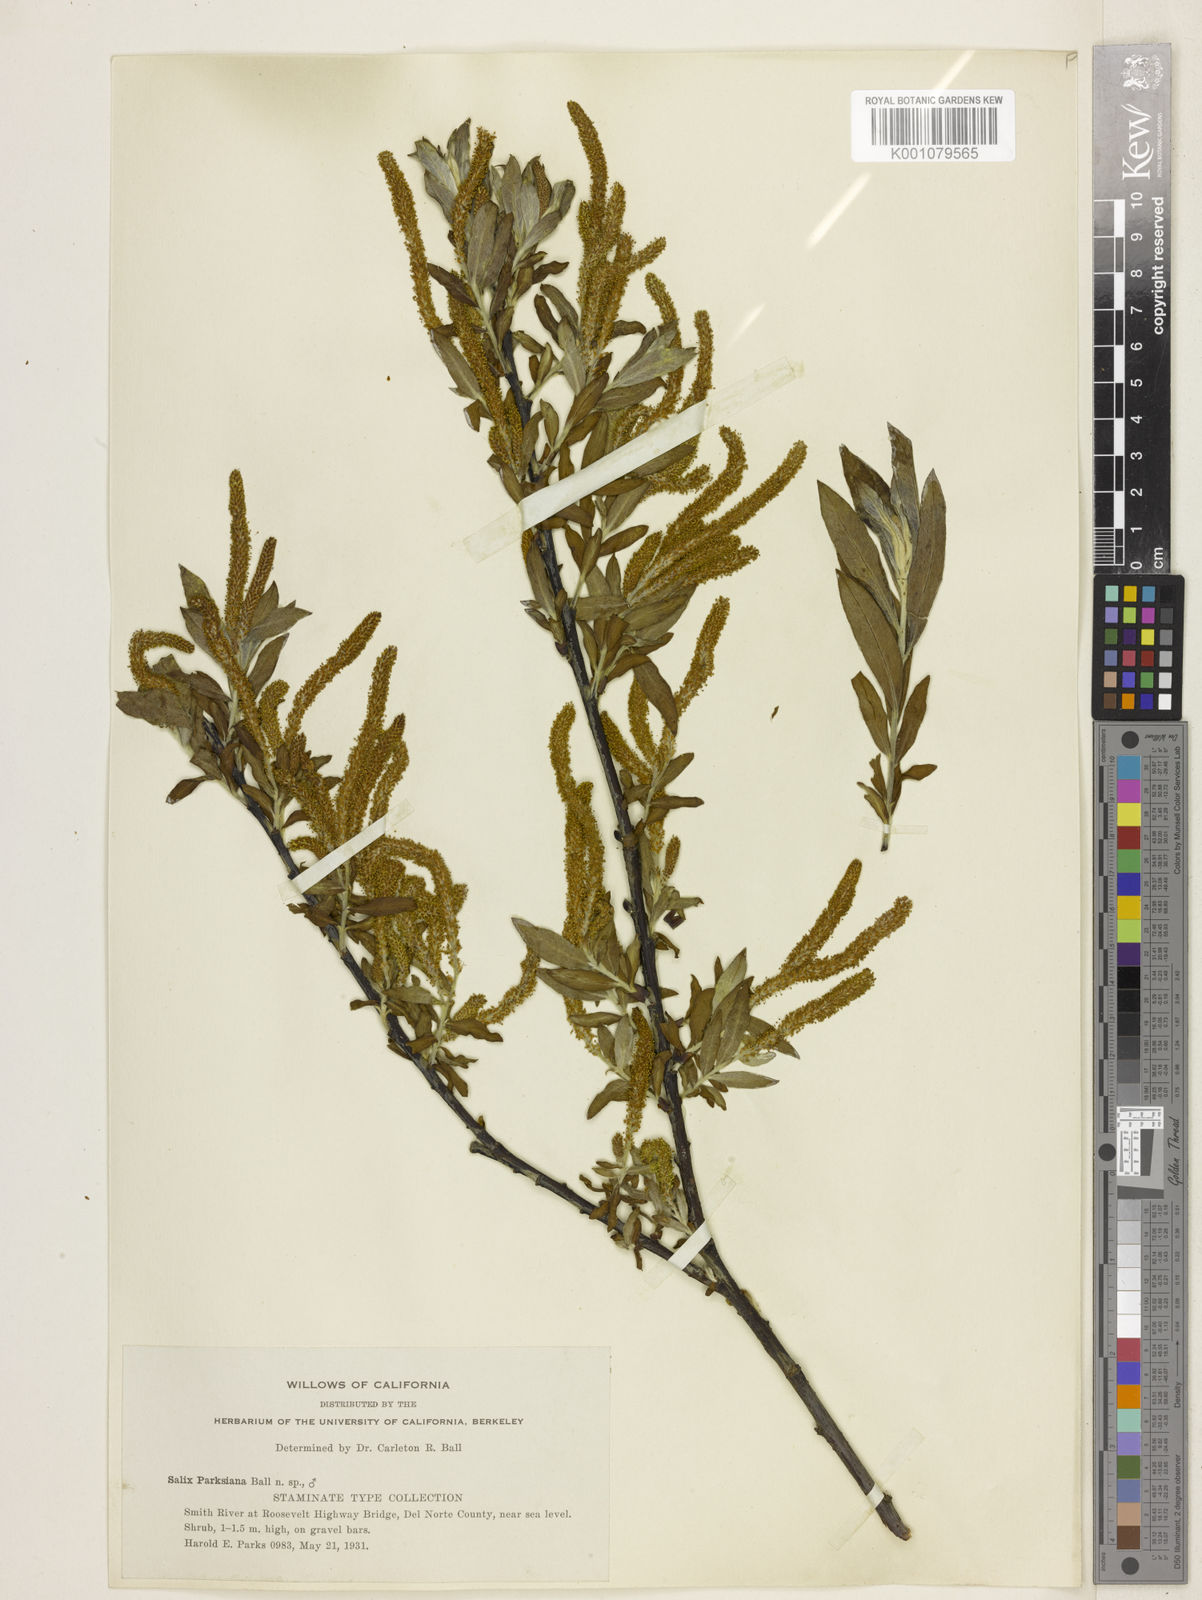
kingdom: Plantae
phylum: Tracheophyta
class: Magnoliopsida
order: Malpighiales
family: Salicaceae
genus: Salix
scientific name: Salix melanopsis
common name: Dusky willow
